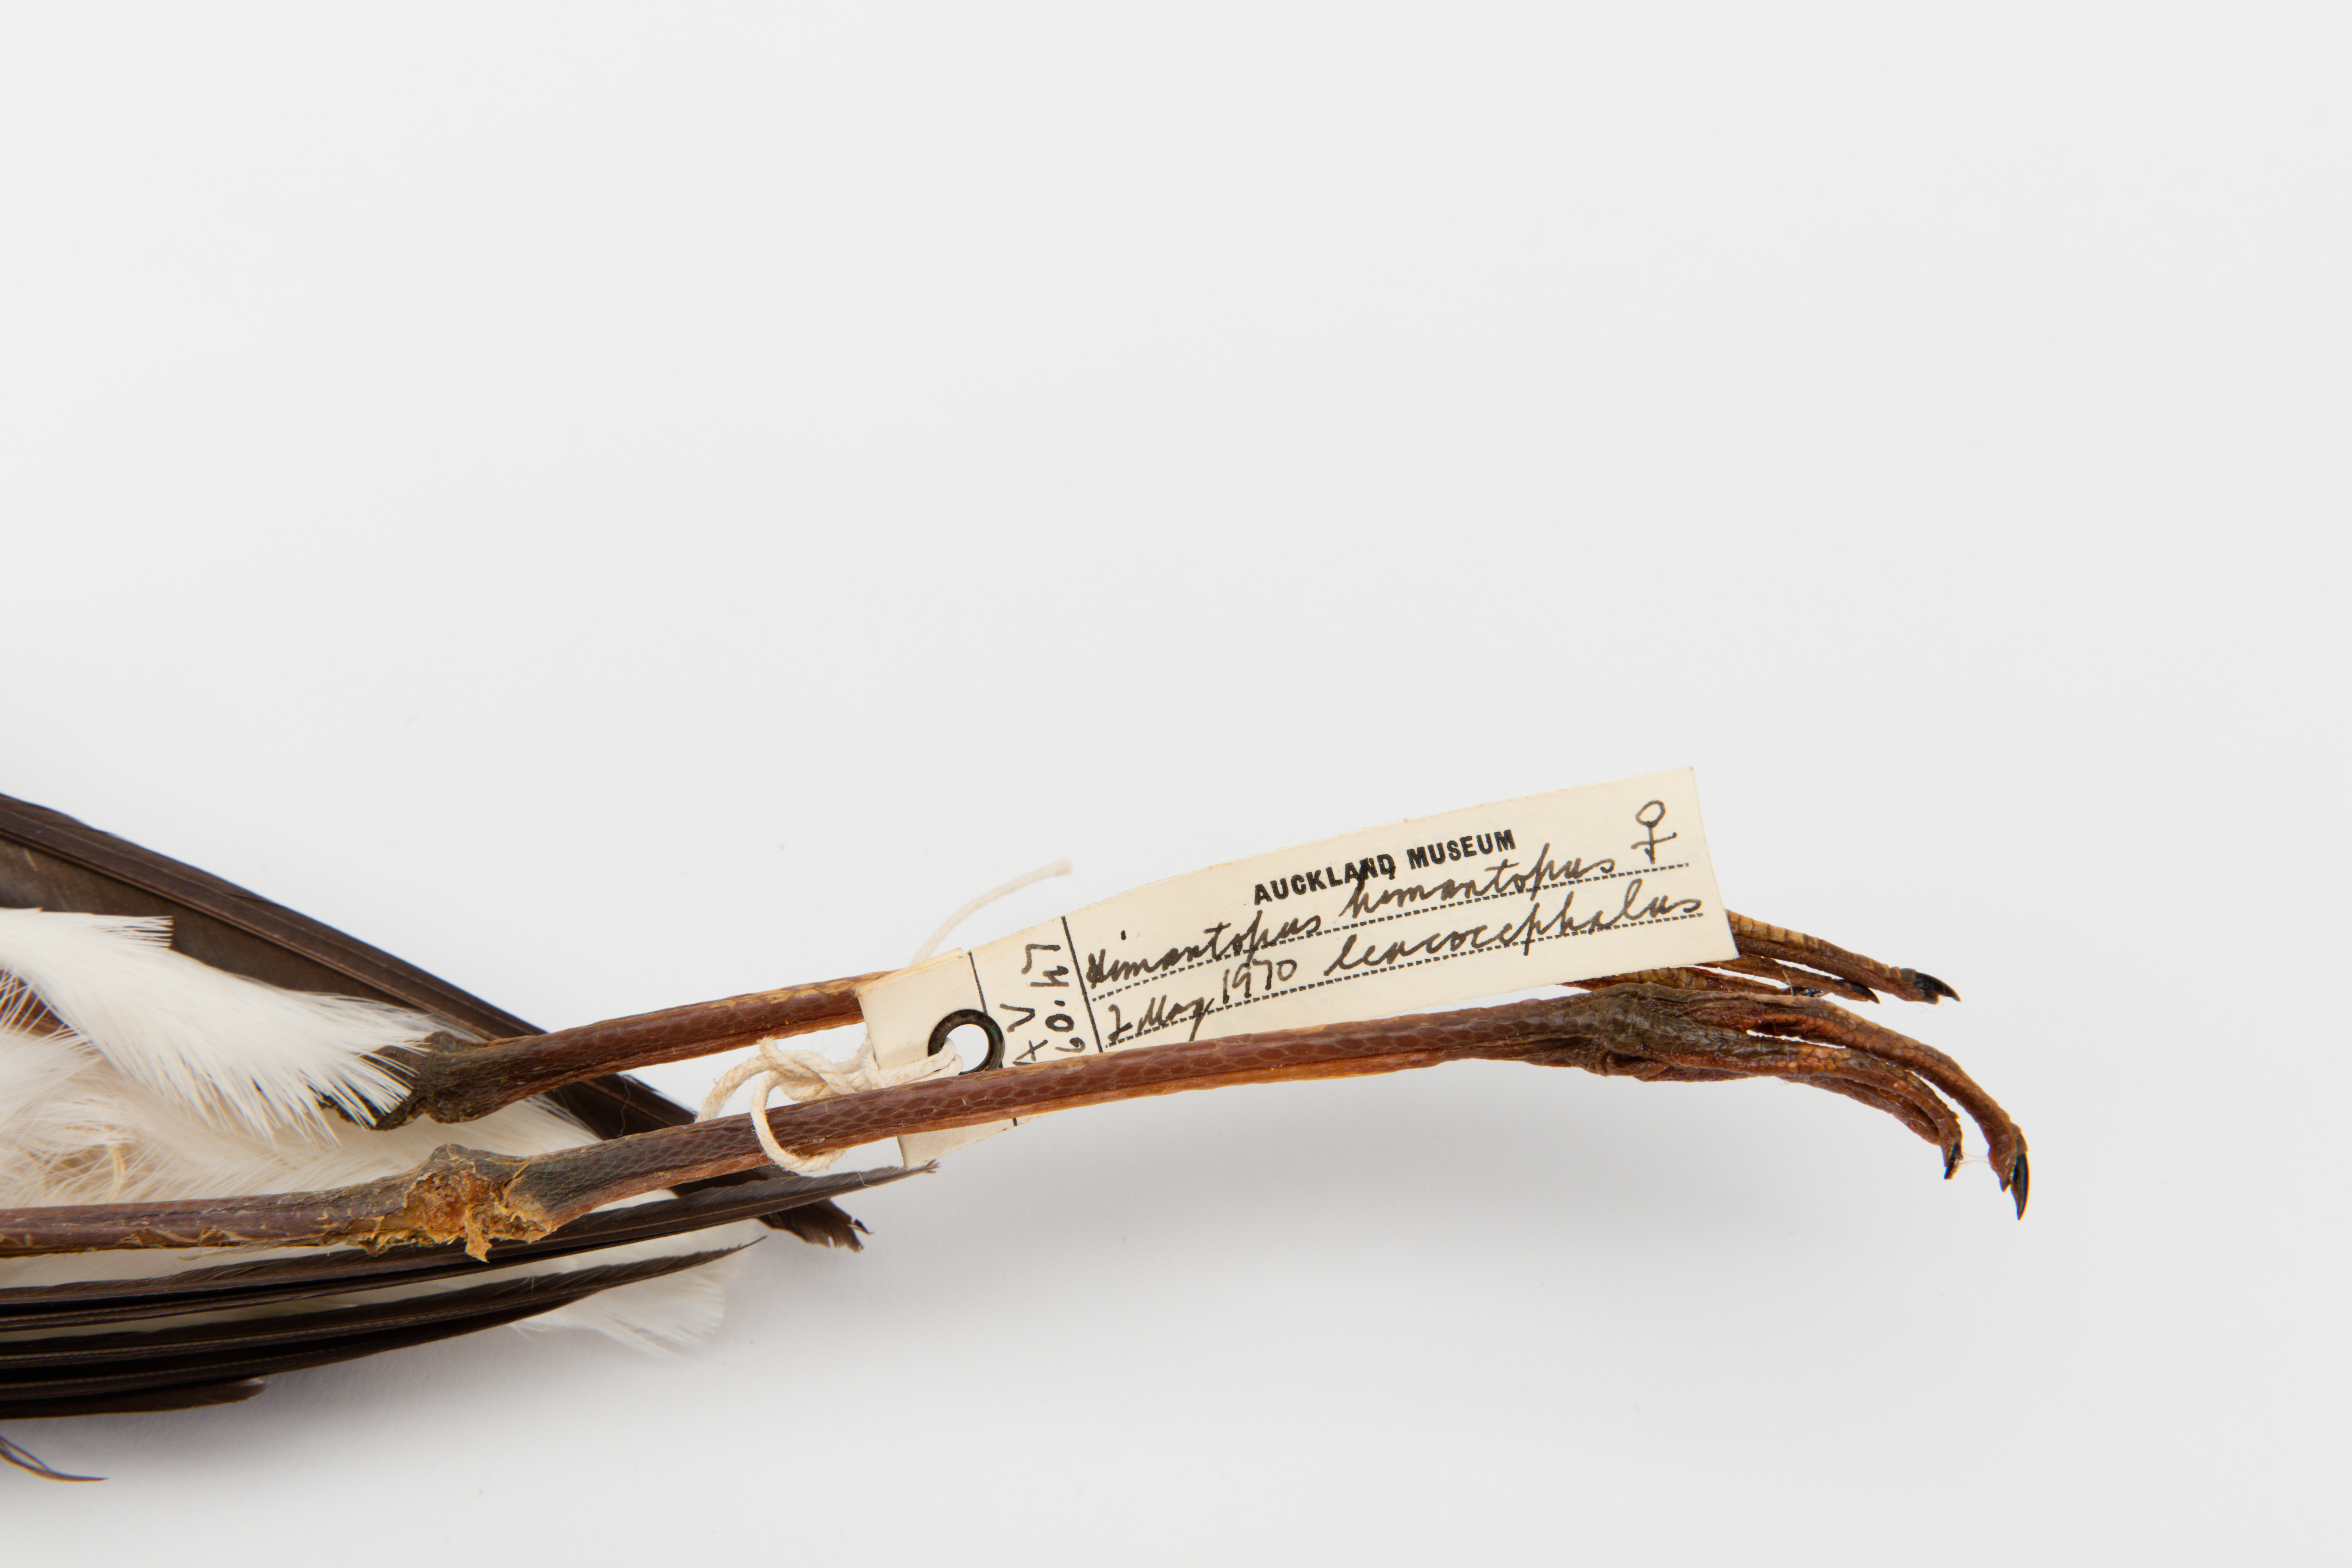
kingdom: Animalia
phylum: Chordata
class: Aves
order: Charadriiformes
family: Recurvirostridae
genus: Himantopus
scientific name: Himantopus himantopus
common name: Black-winged stilt
